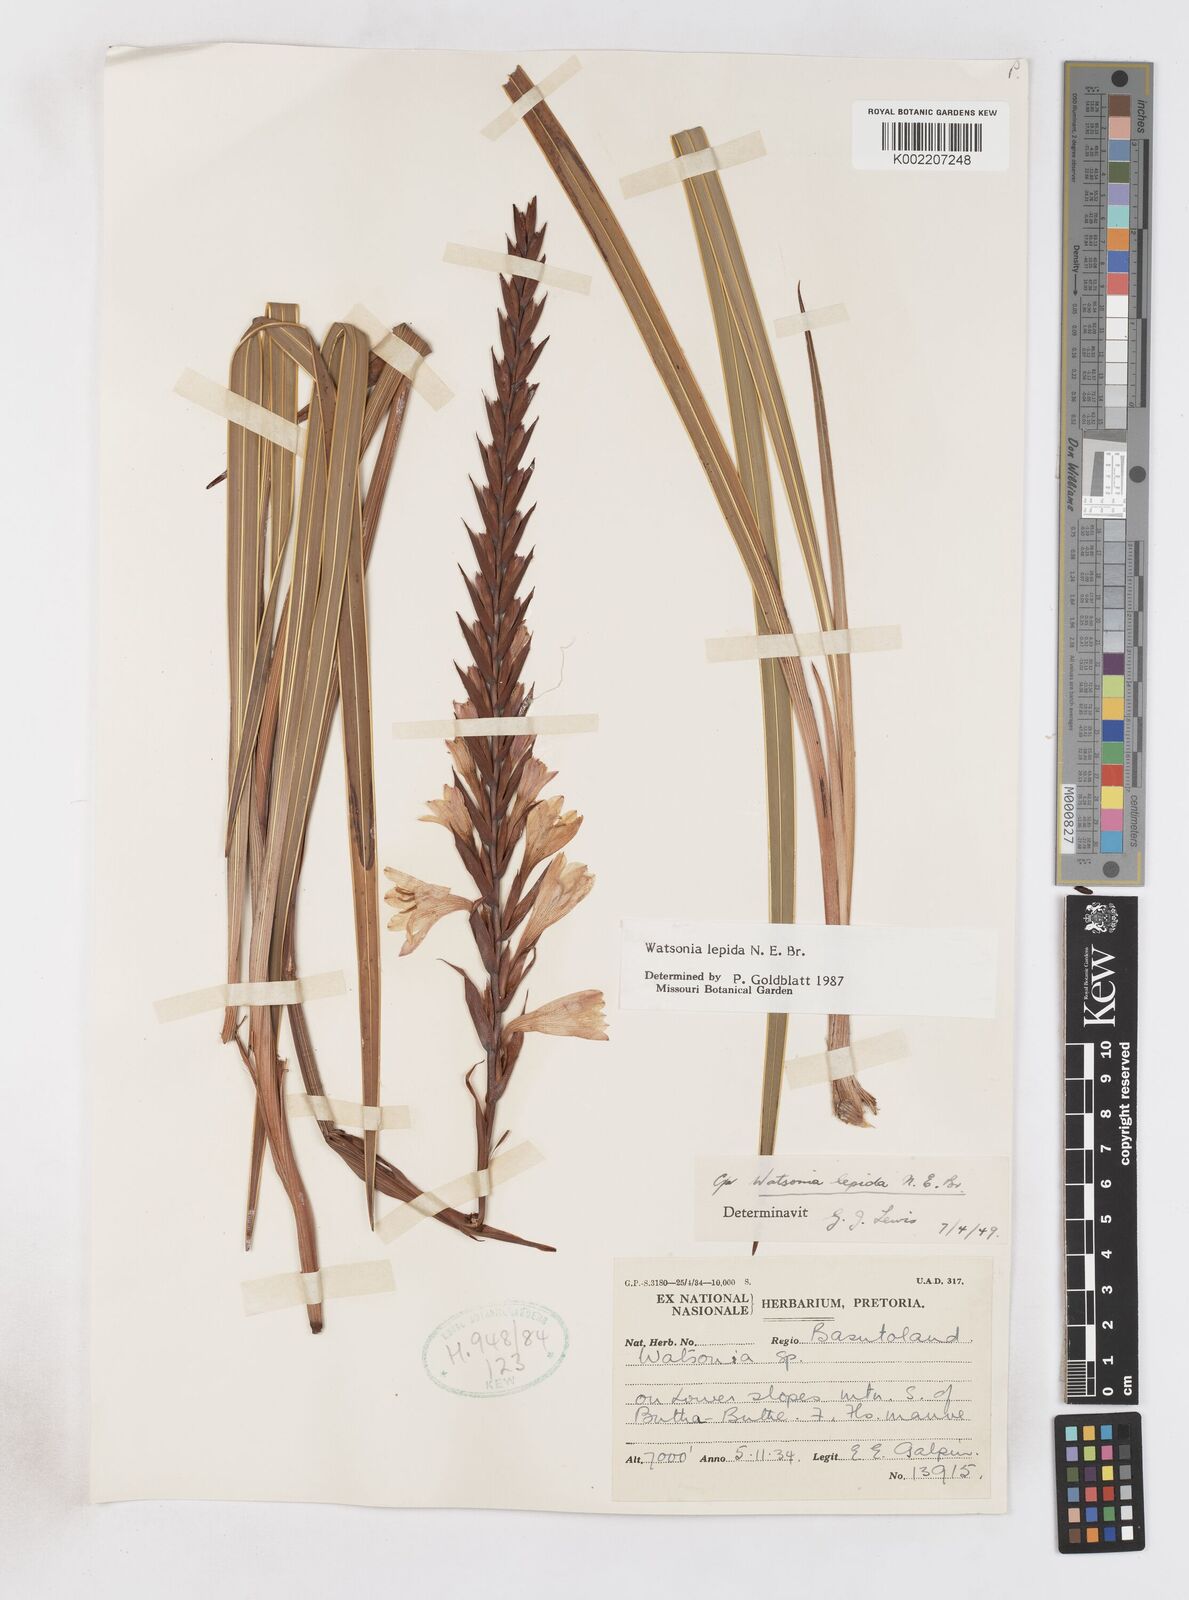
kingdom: Plantae
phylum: Tracheophyta
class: Liliopsida
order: Asparagales
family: Iridaceae
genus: Watsonia
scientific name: Watsonia lepida
